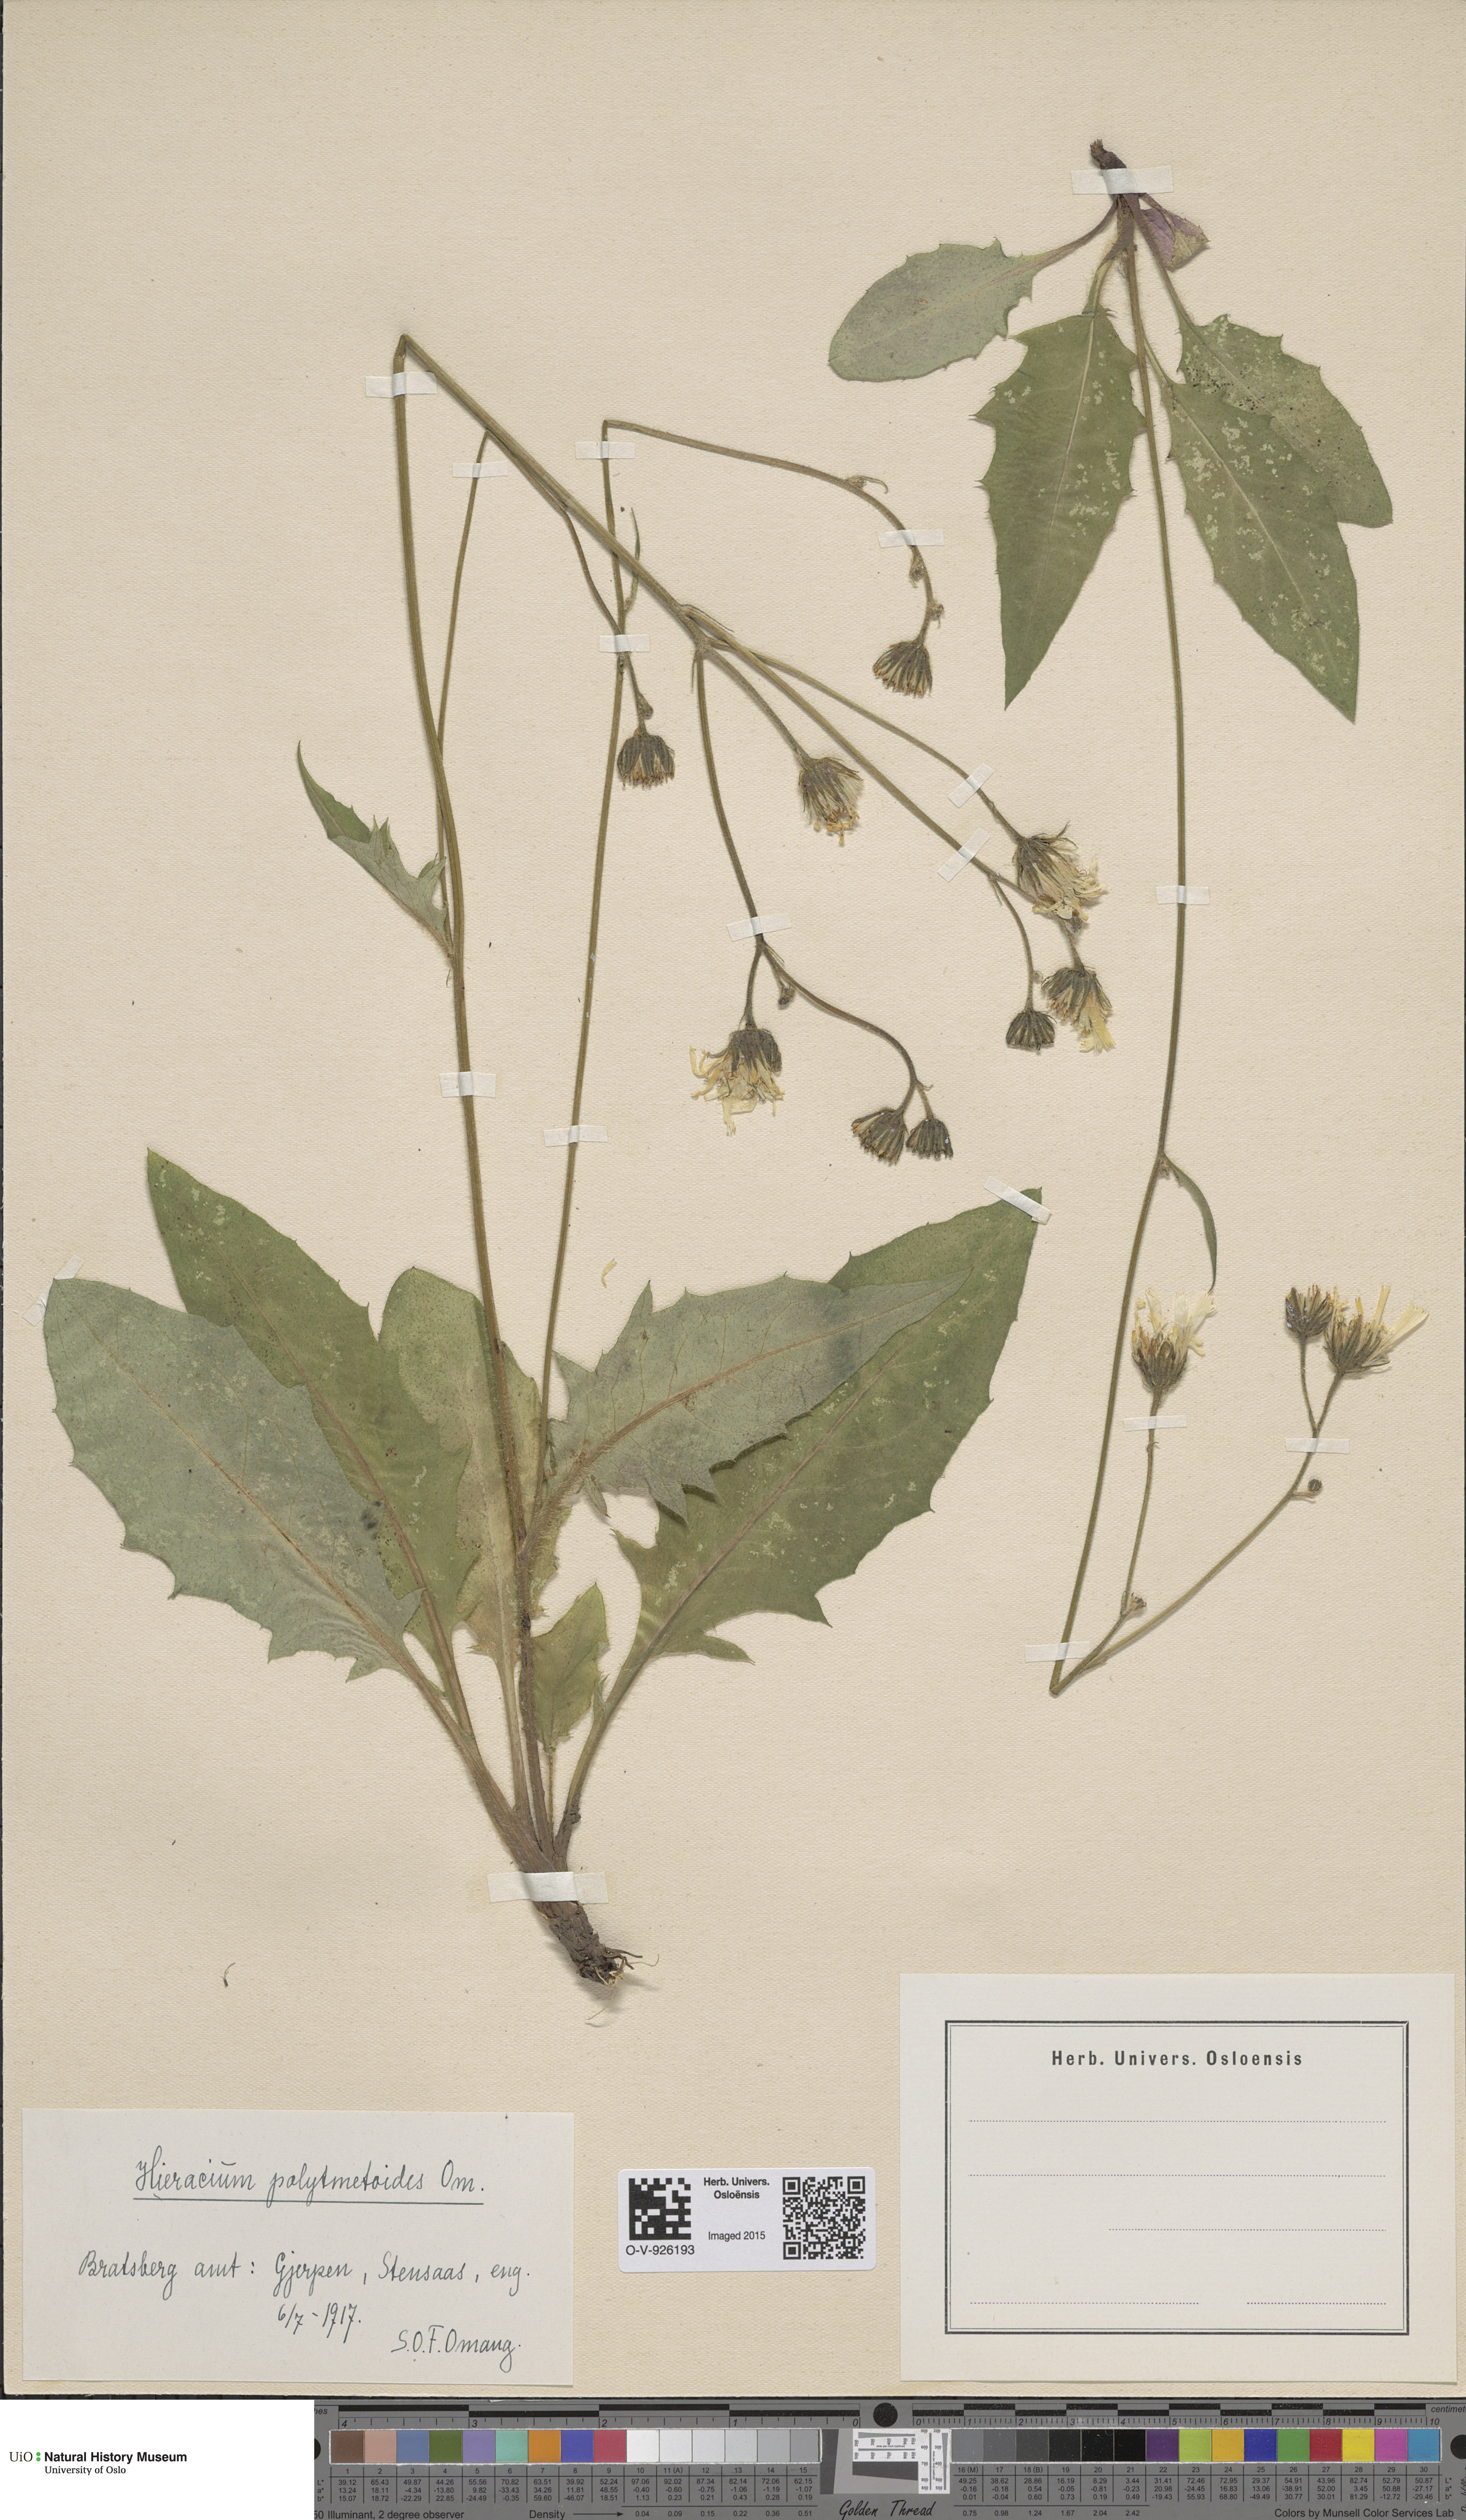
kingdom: Plantae
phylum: Tracheophyta
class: Magnoliopsida
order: Asterales
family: Asteraceae
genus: Hieracium
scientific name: Hieracium
